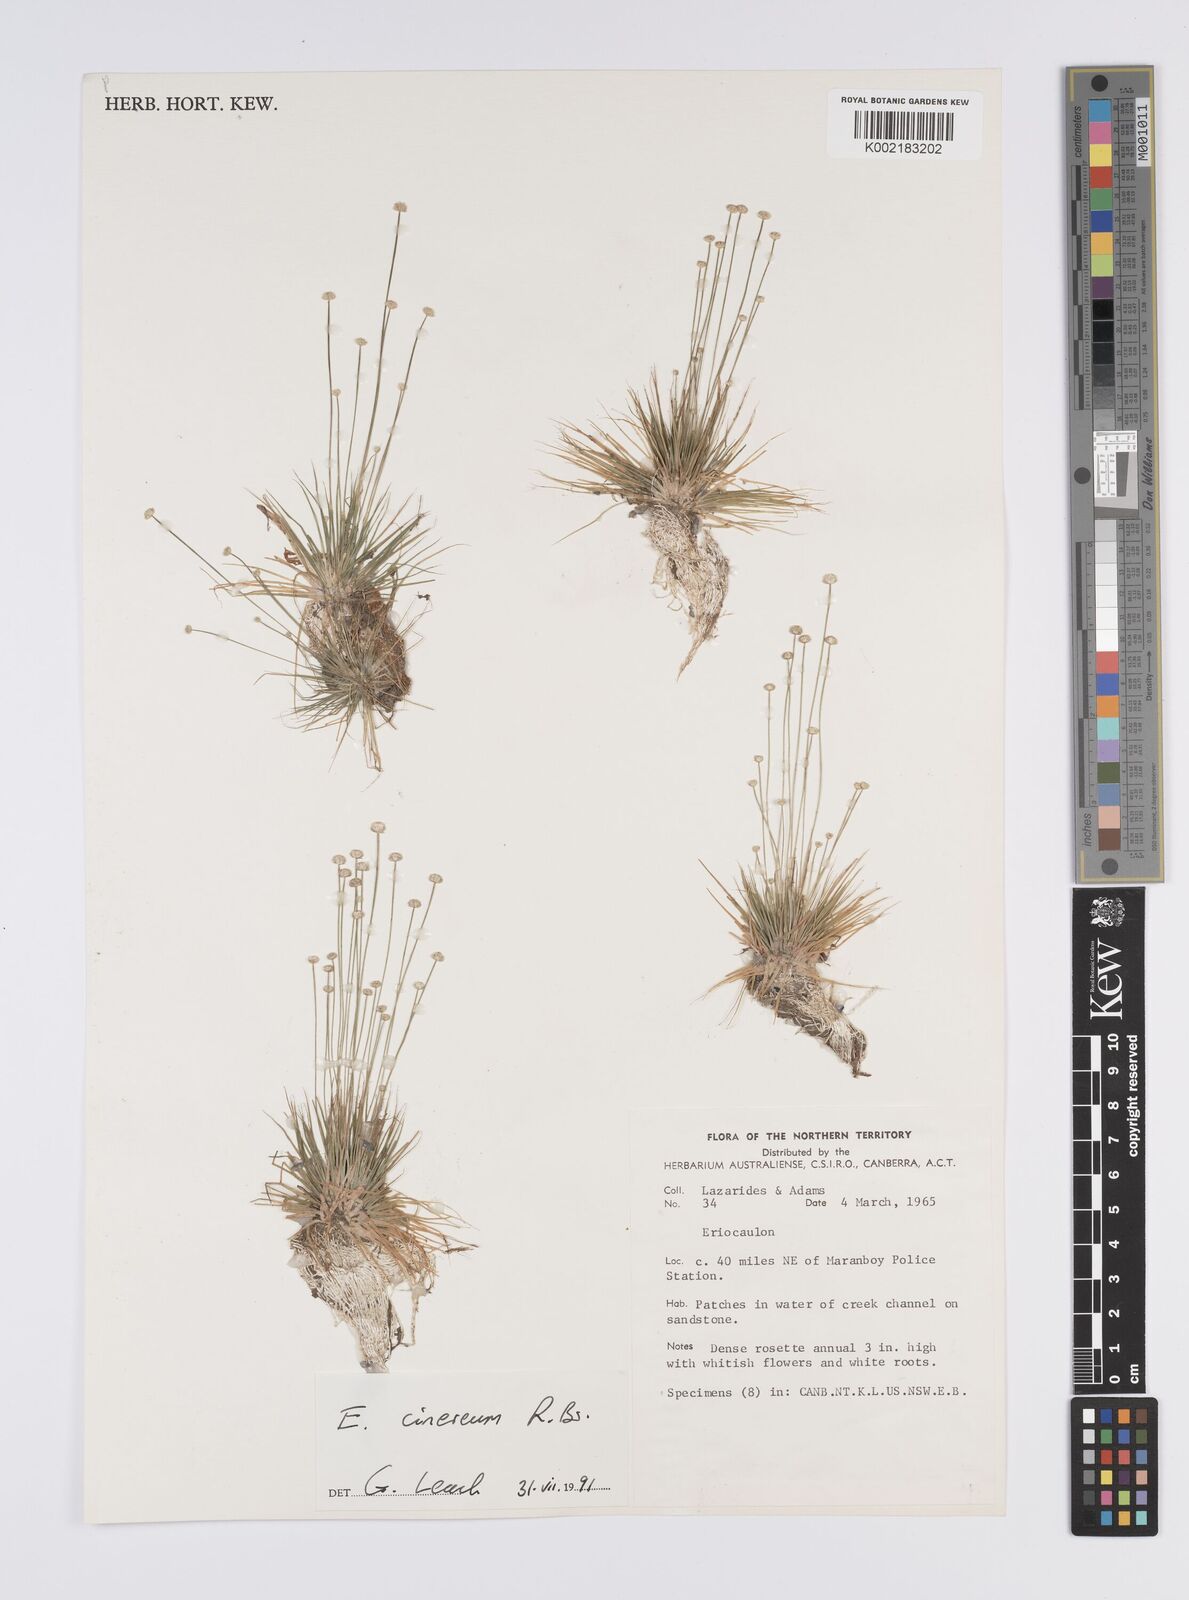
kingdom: Plantae
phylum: Tracheophyta
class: Liliopsida
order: Poales
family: Eriocaulaceae
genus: Eriocaulon
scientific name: Eriocaulon cinereum
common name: Ashy pipewort
